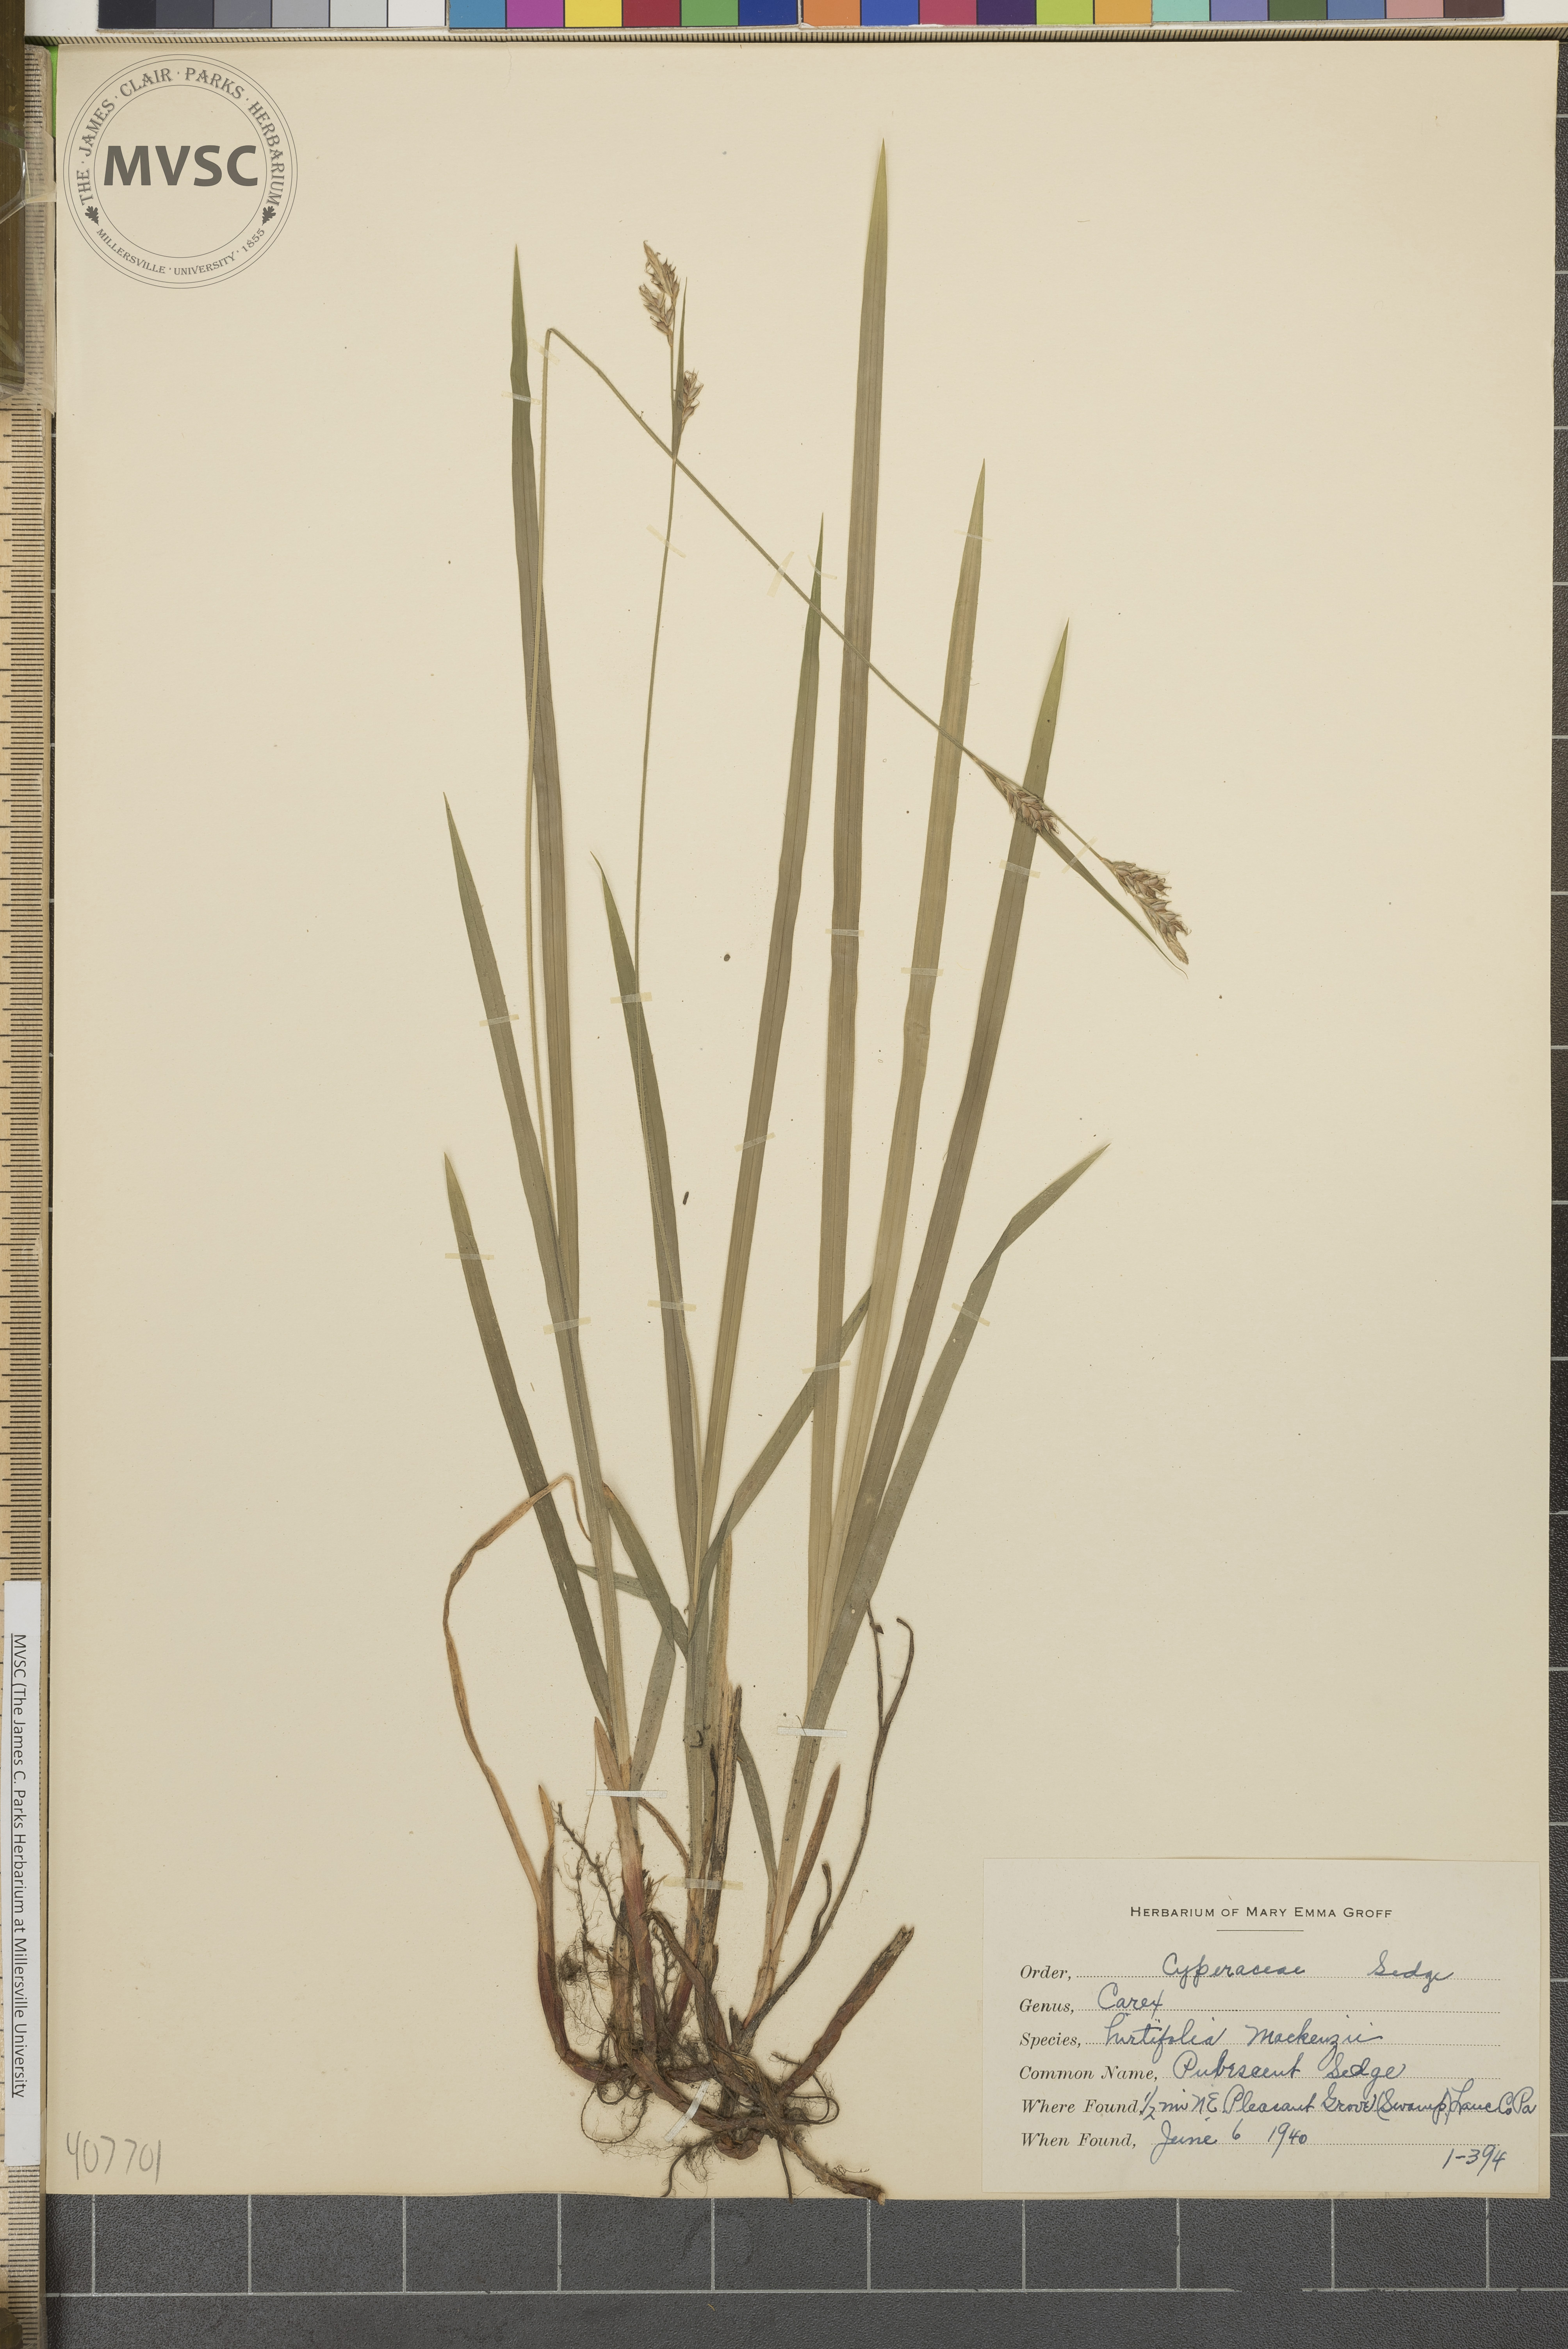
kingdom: Plantae
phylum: Tracheophyta
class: Liliopsida
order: Poales
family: Cyperaceae
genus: Carex
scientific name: Carex hirtifolia
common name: Pubescent Sedge
